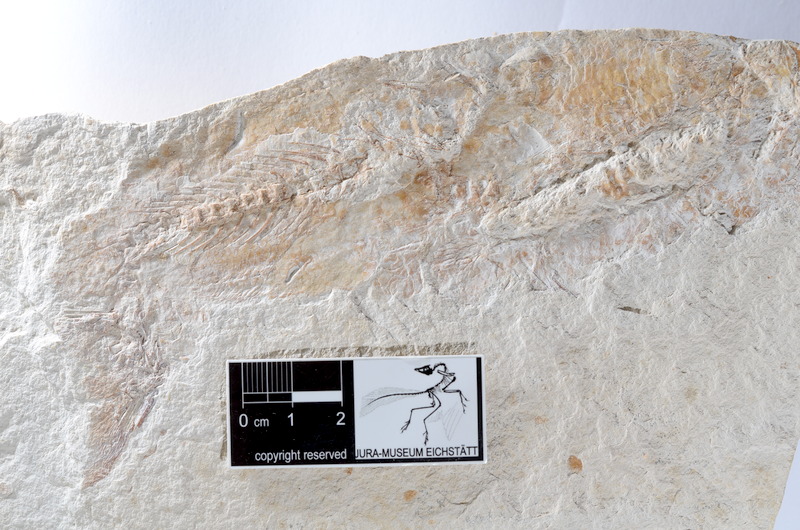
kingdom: Animalia
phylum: Chordata
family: Ascalaboidae
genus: Tharsis
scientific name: Tharsis dubius
